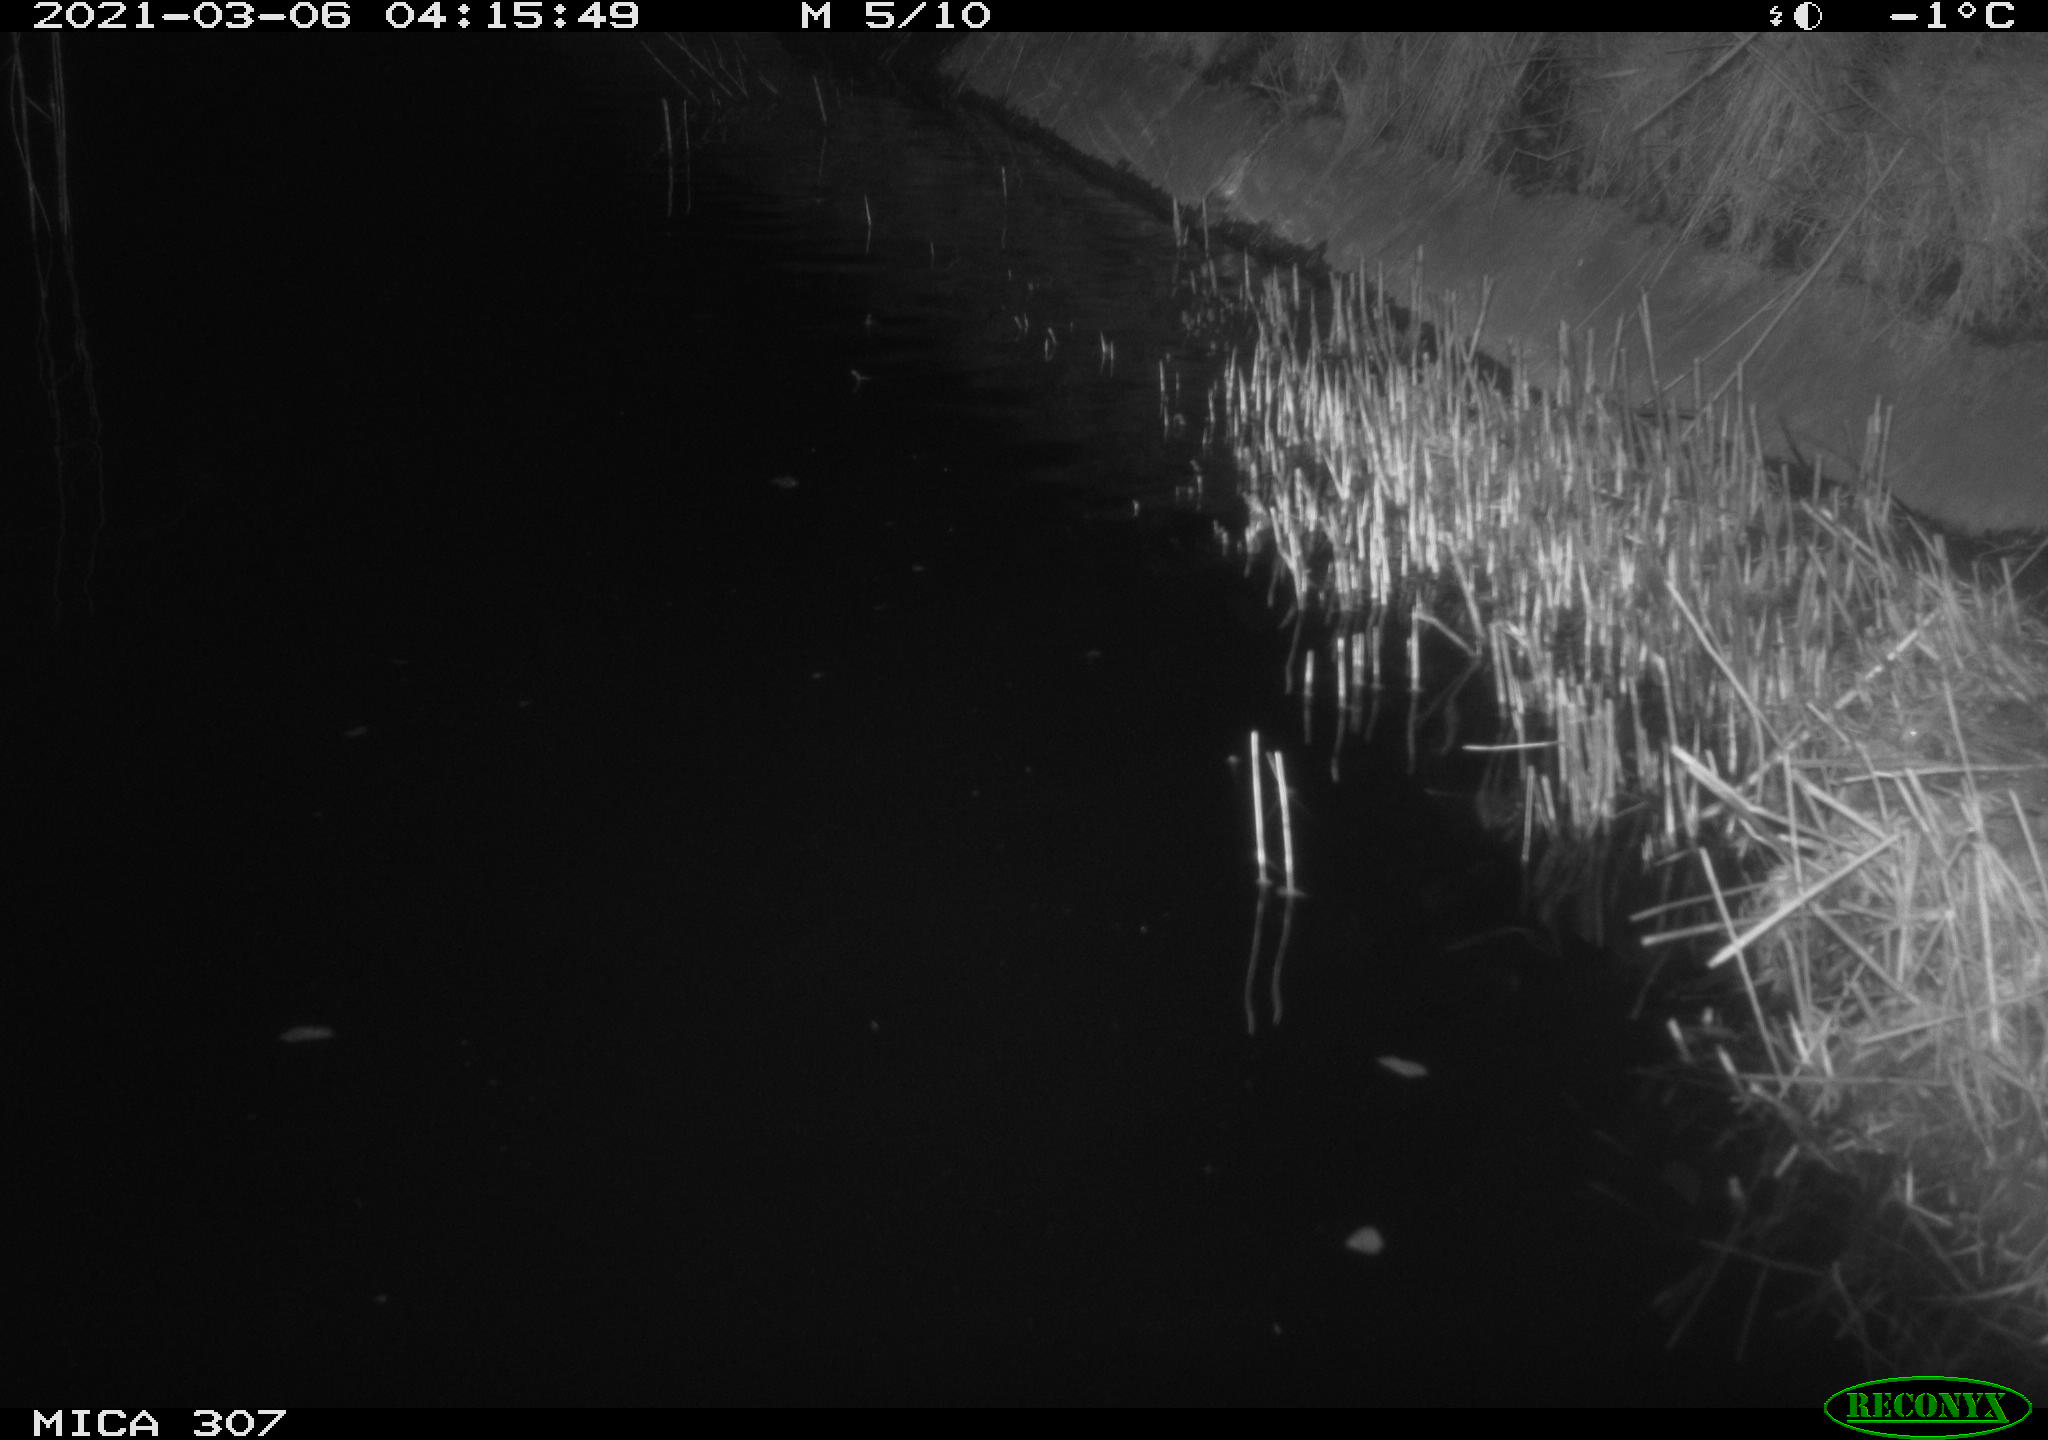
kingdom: Animalia
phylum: Chordata
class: Aves
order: Anseriformes
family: Anatidae
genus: Anas
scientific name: Anas platyrhynchos
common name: Mallard
